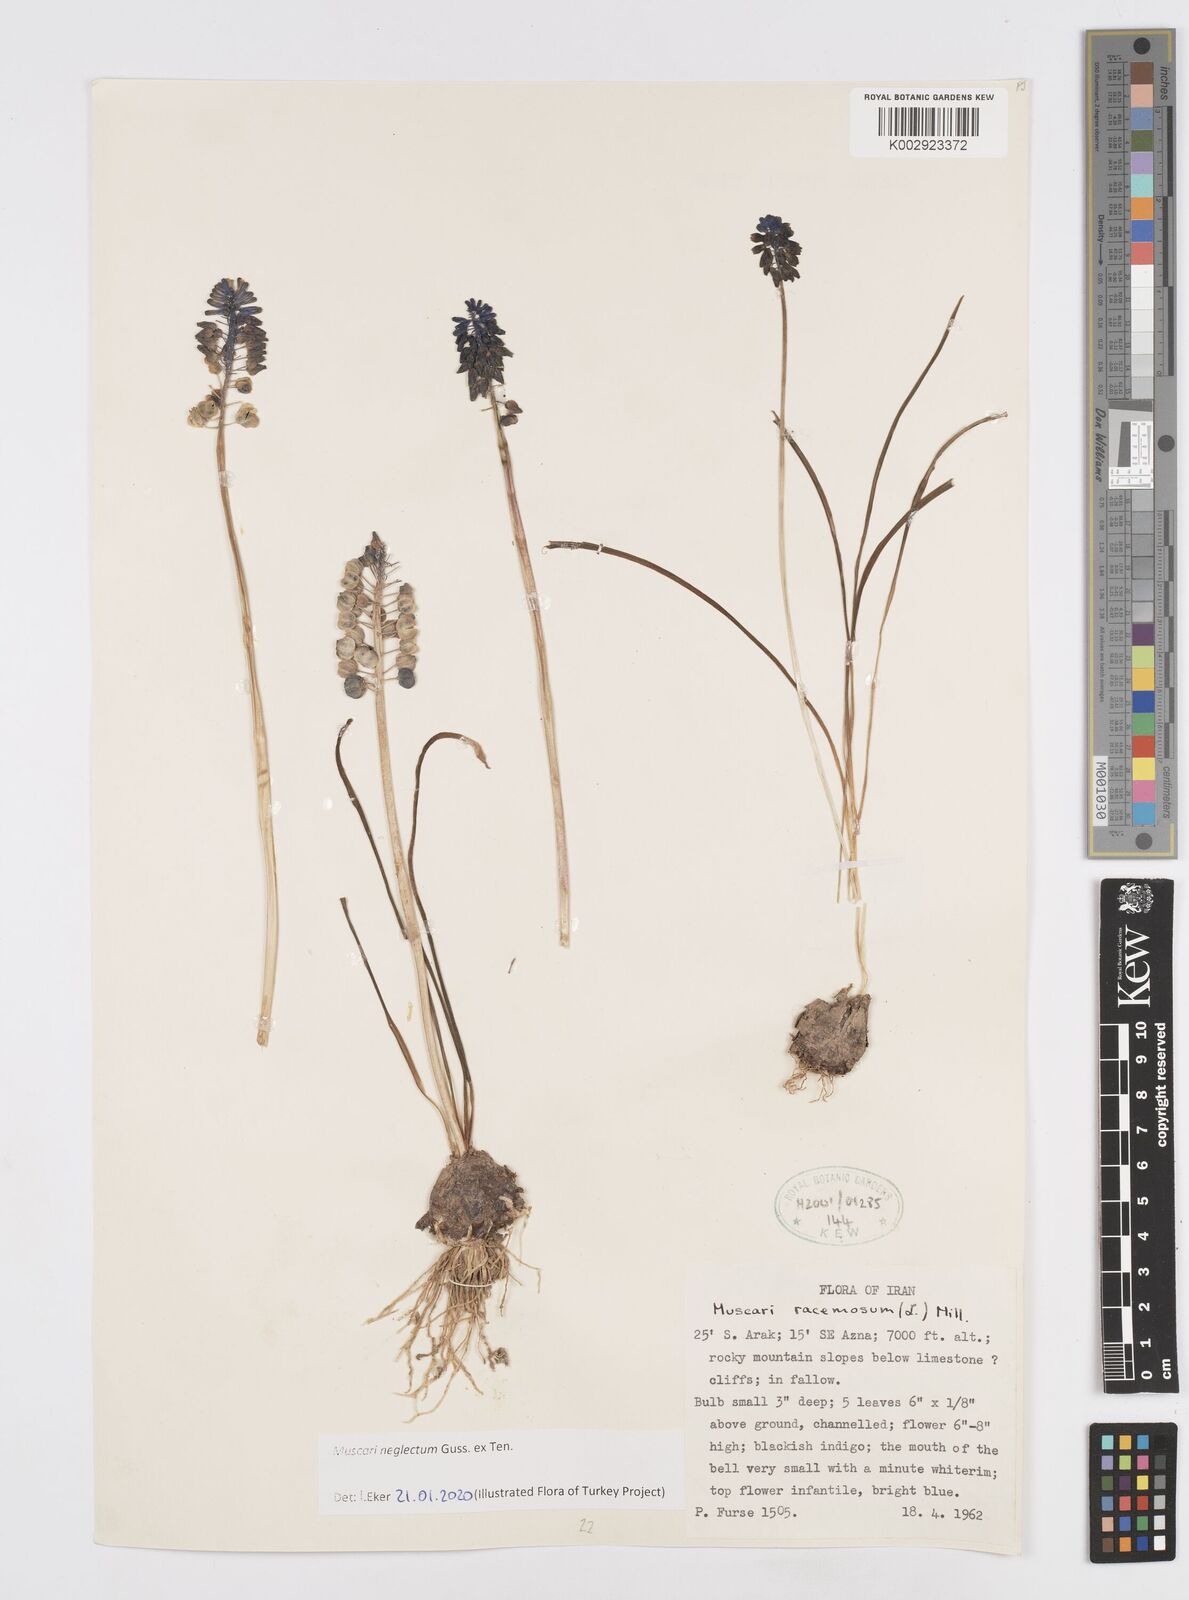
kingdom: Plantae
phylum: Tracheophyta
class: Liliopsida
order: Asparagales
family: Asparagaceae
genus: Muscari
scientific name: Muscari neglectum
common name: Grape-hyacinth
